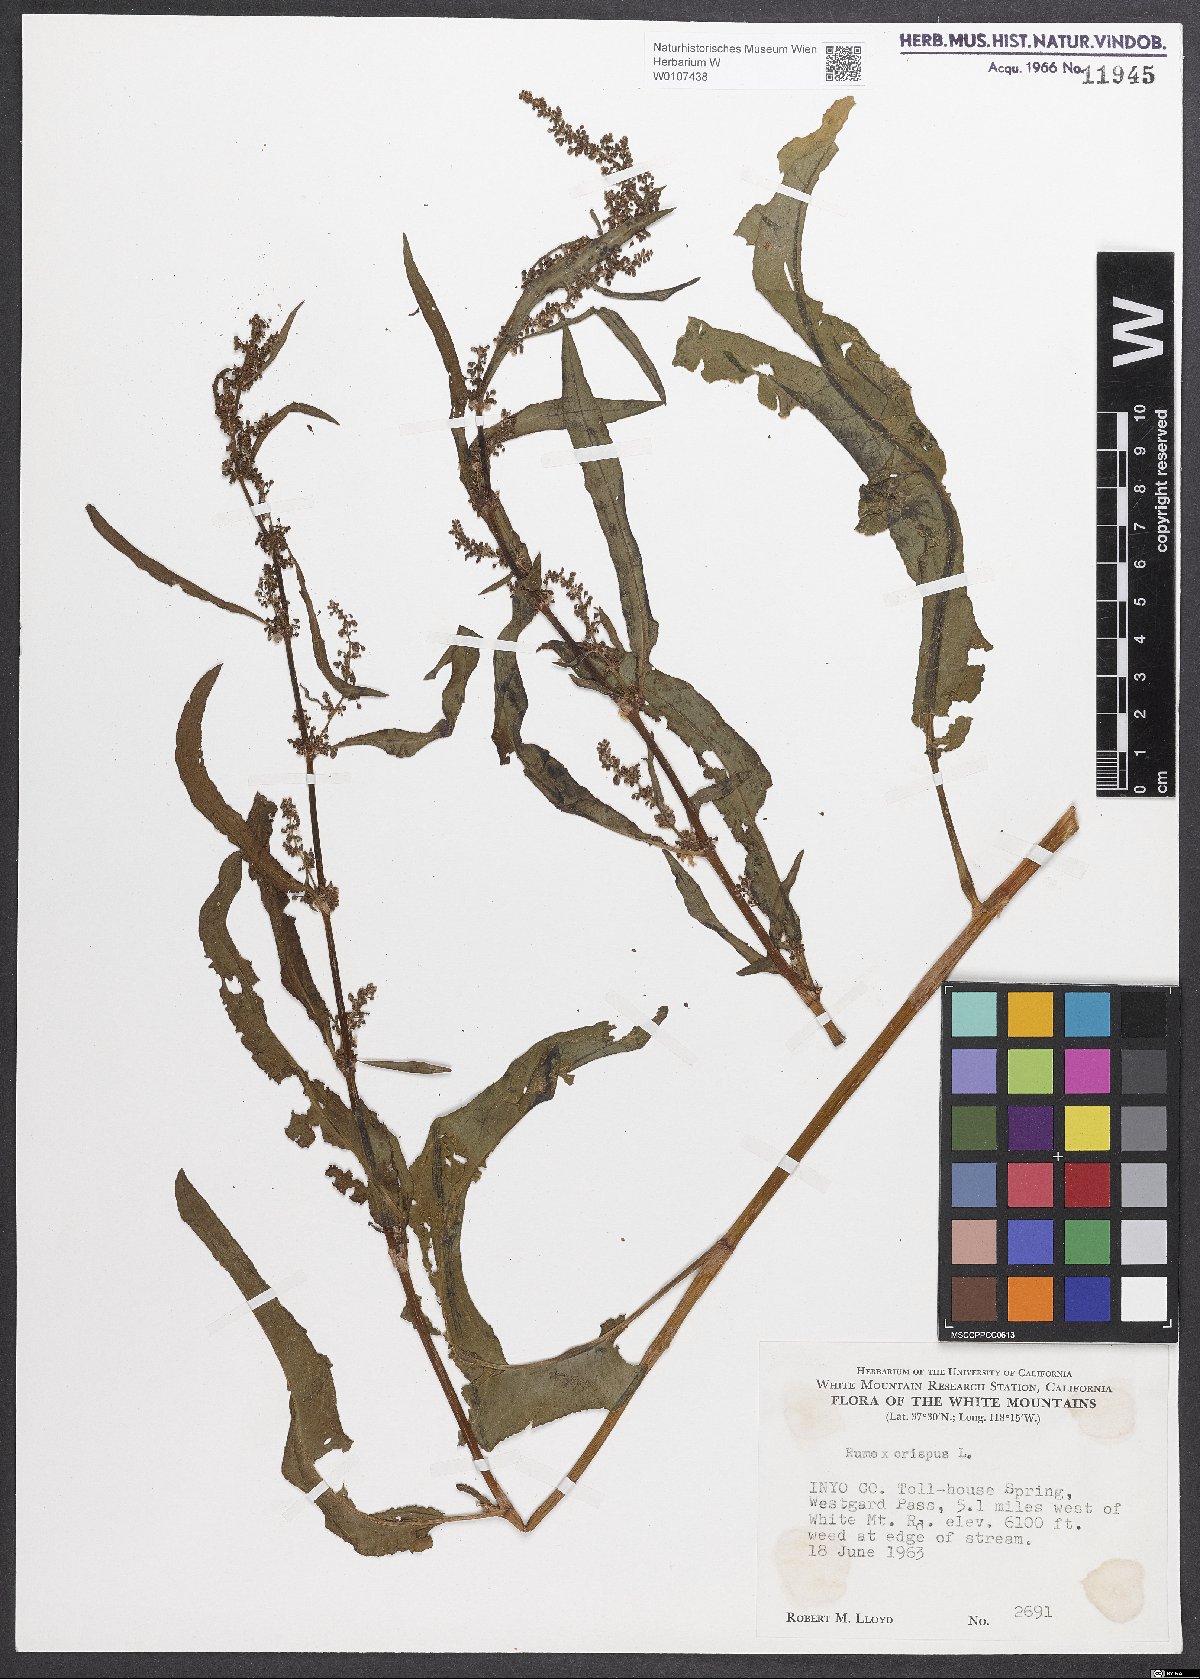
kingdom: Plantae
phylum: Tracheophyta
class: Magnoliopsida
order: Caryophyllales
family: Polygonaceae
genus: Rumex
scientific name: Rumex crispus
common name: Curled dock
